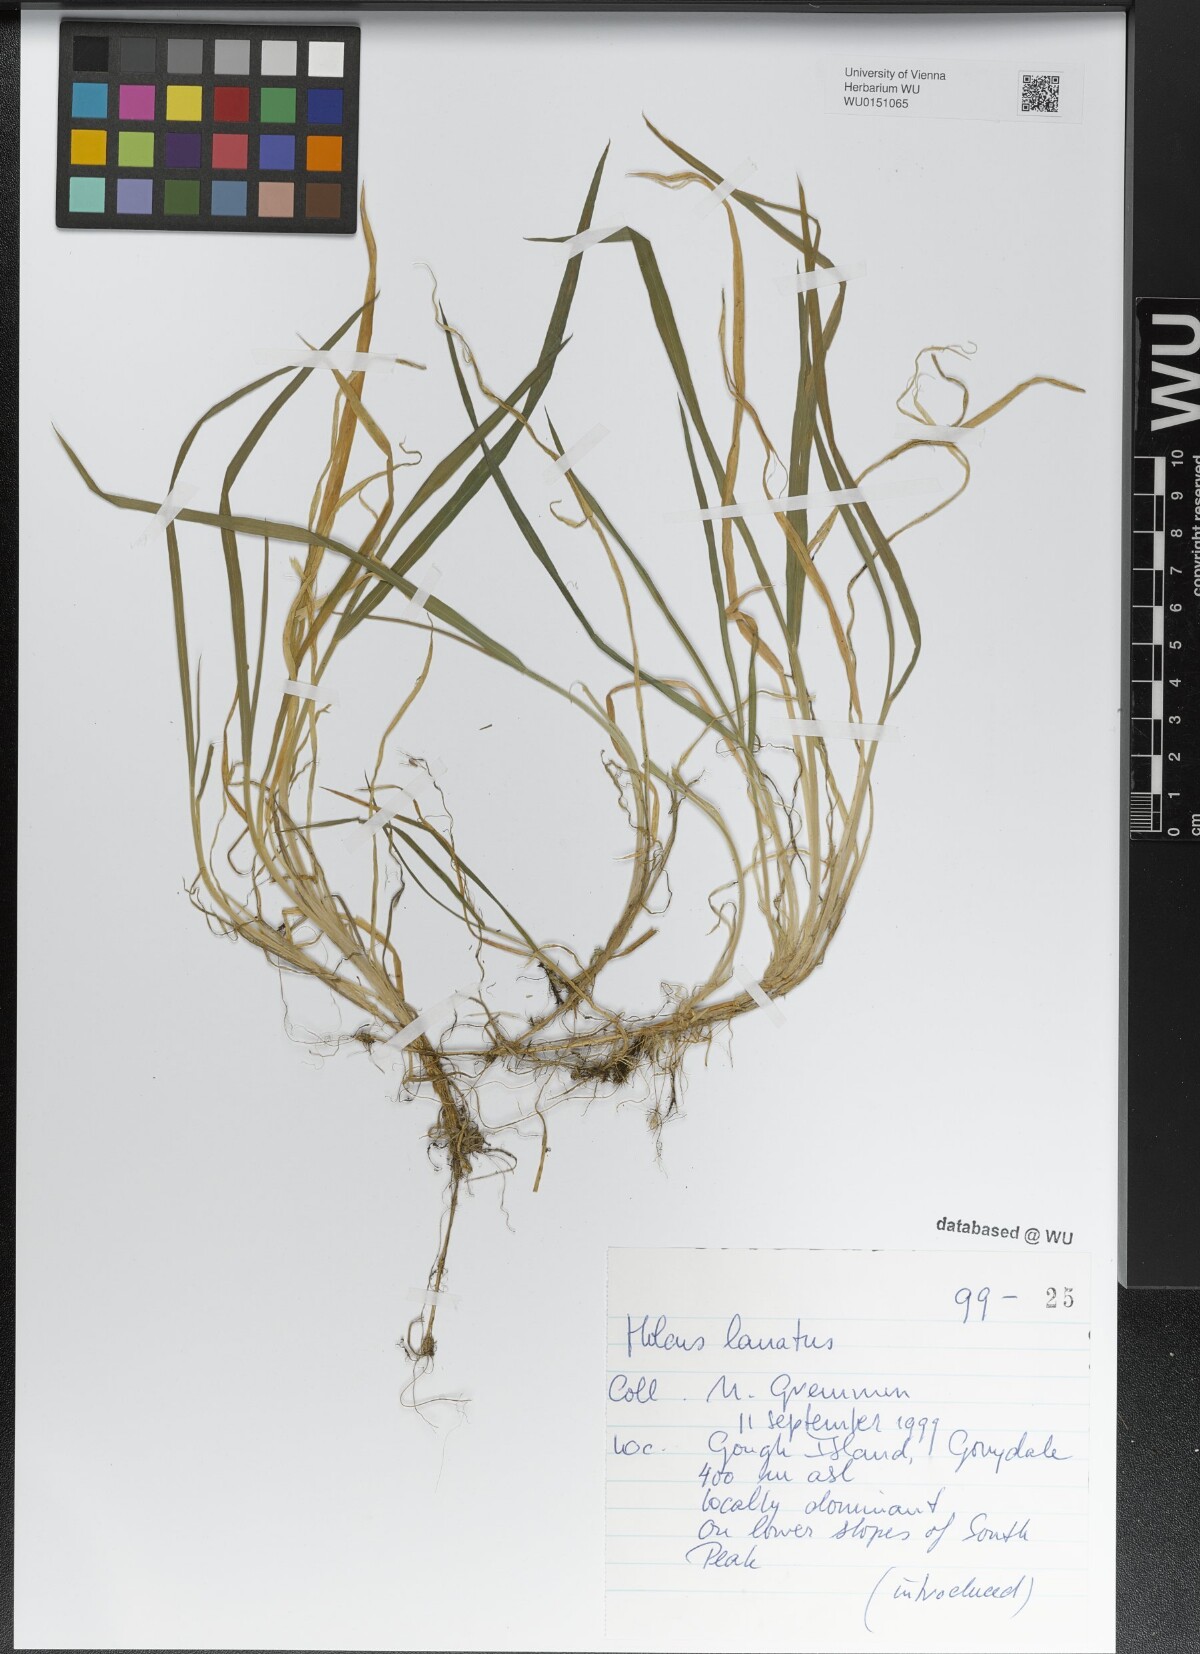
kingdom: Plantae
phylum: Tracheophyta
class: Liliopsida
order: Poales
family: Poaceae
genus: Holcus
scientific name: Holcus lanatus
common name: Yorkshire-fog
